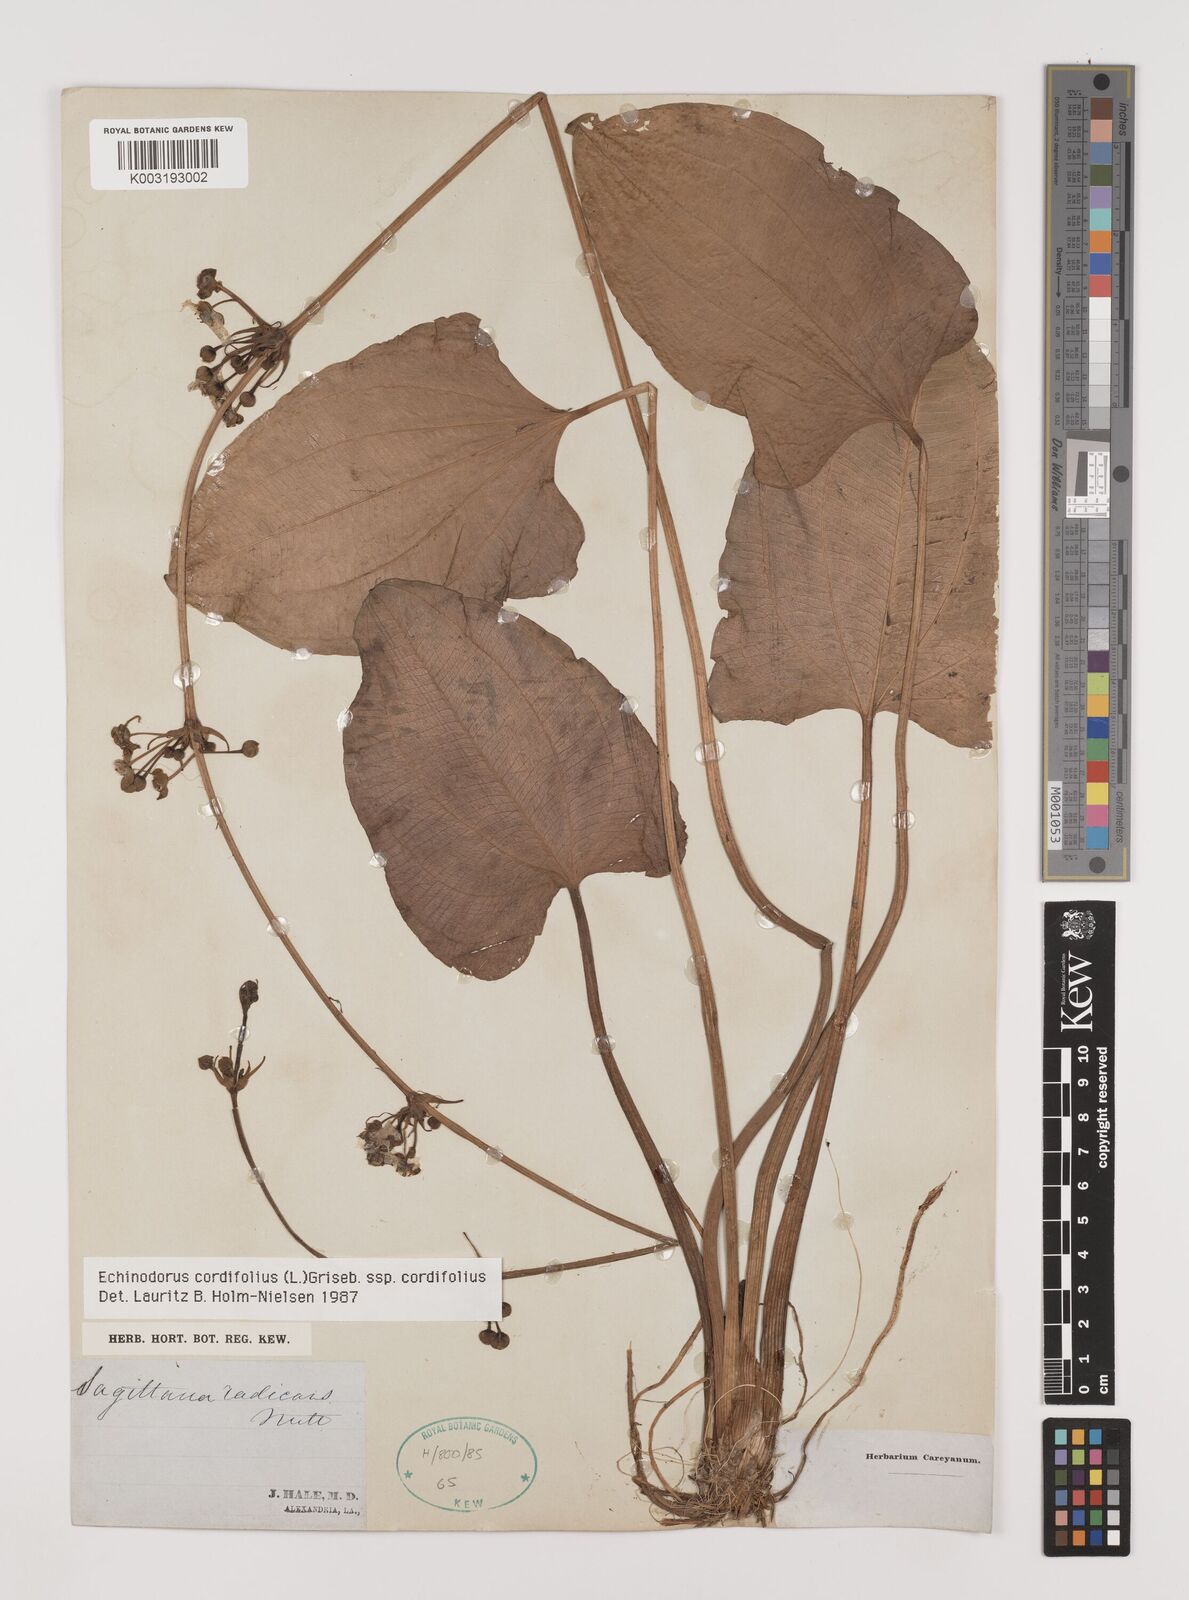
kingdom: Plantae
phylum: Tracheophyta
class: Liliopsida
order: Alismatales
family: Alismataceae
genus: Aquarius
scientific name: Aquarius cordifolius
